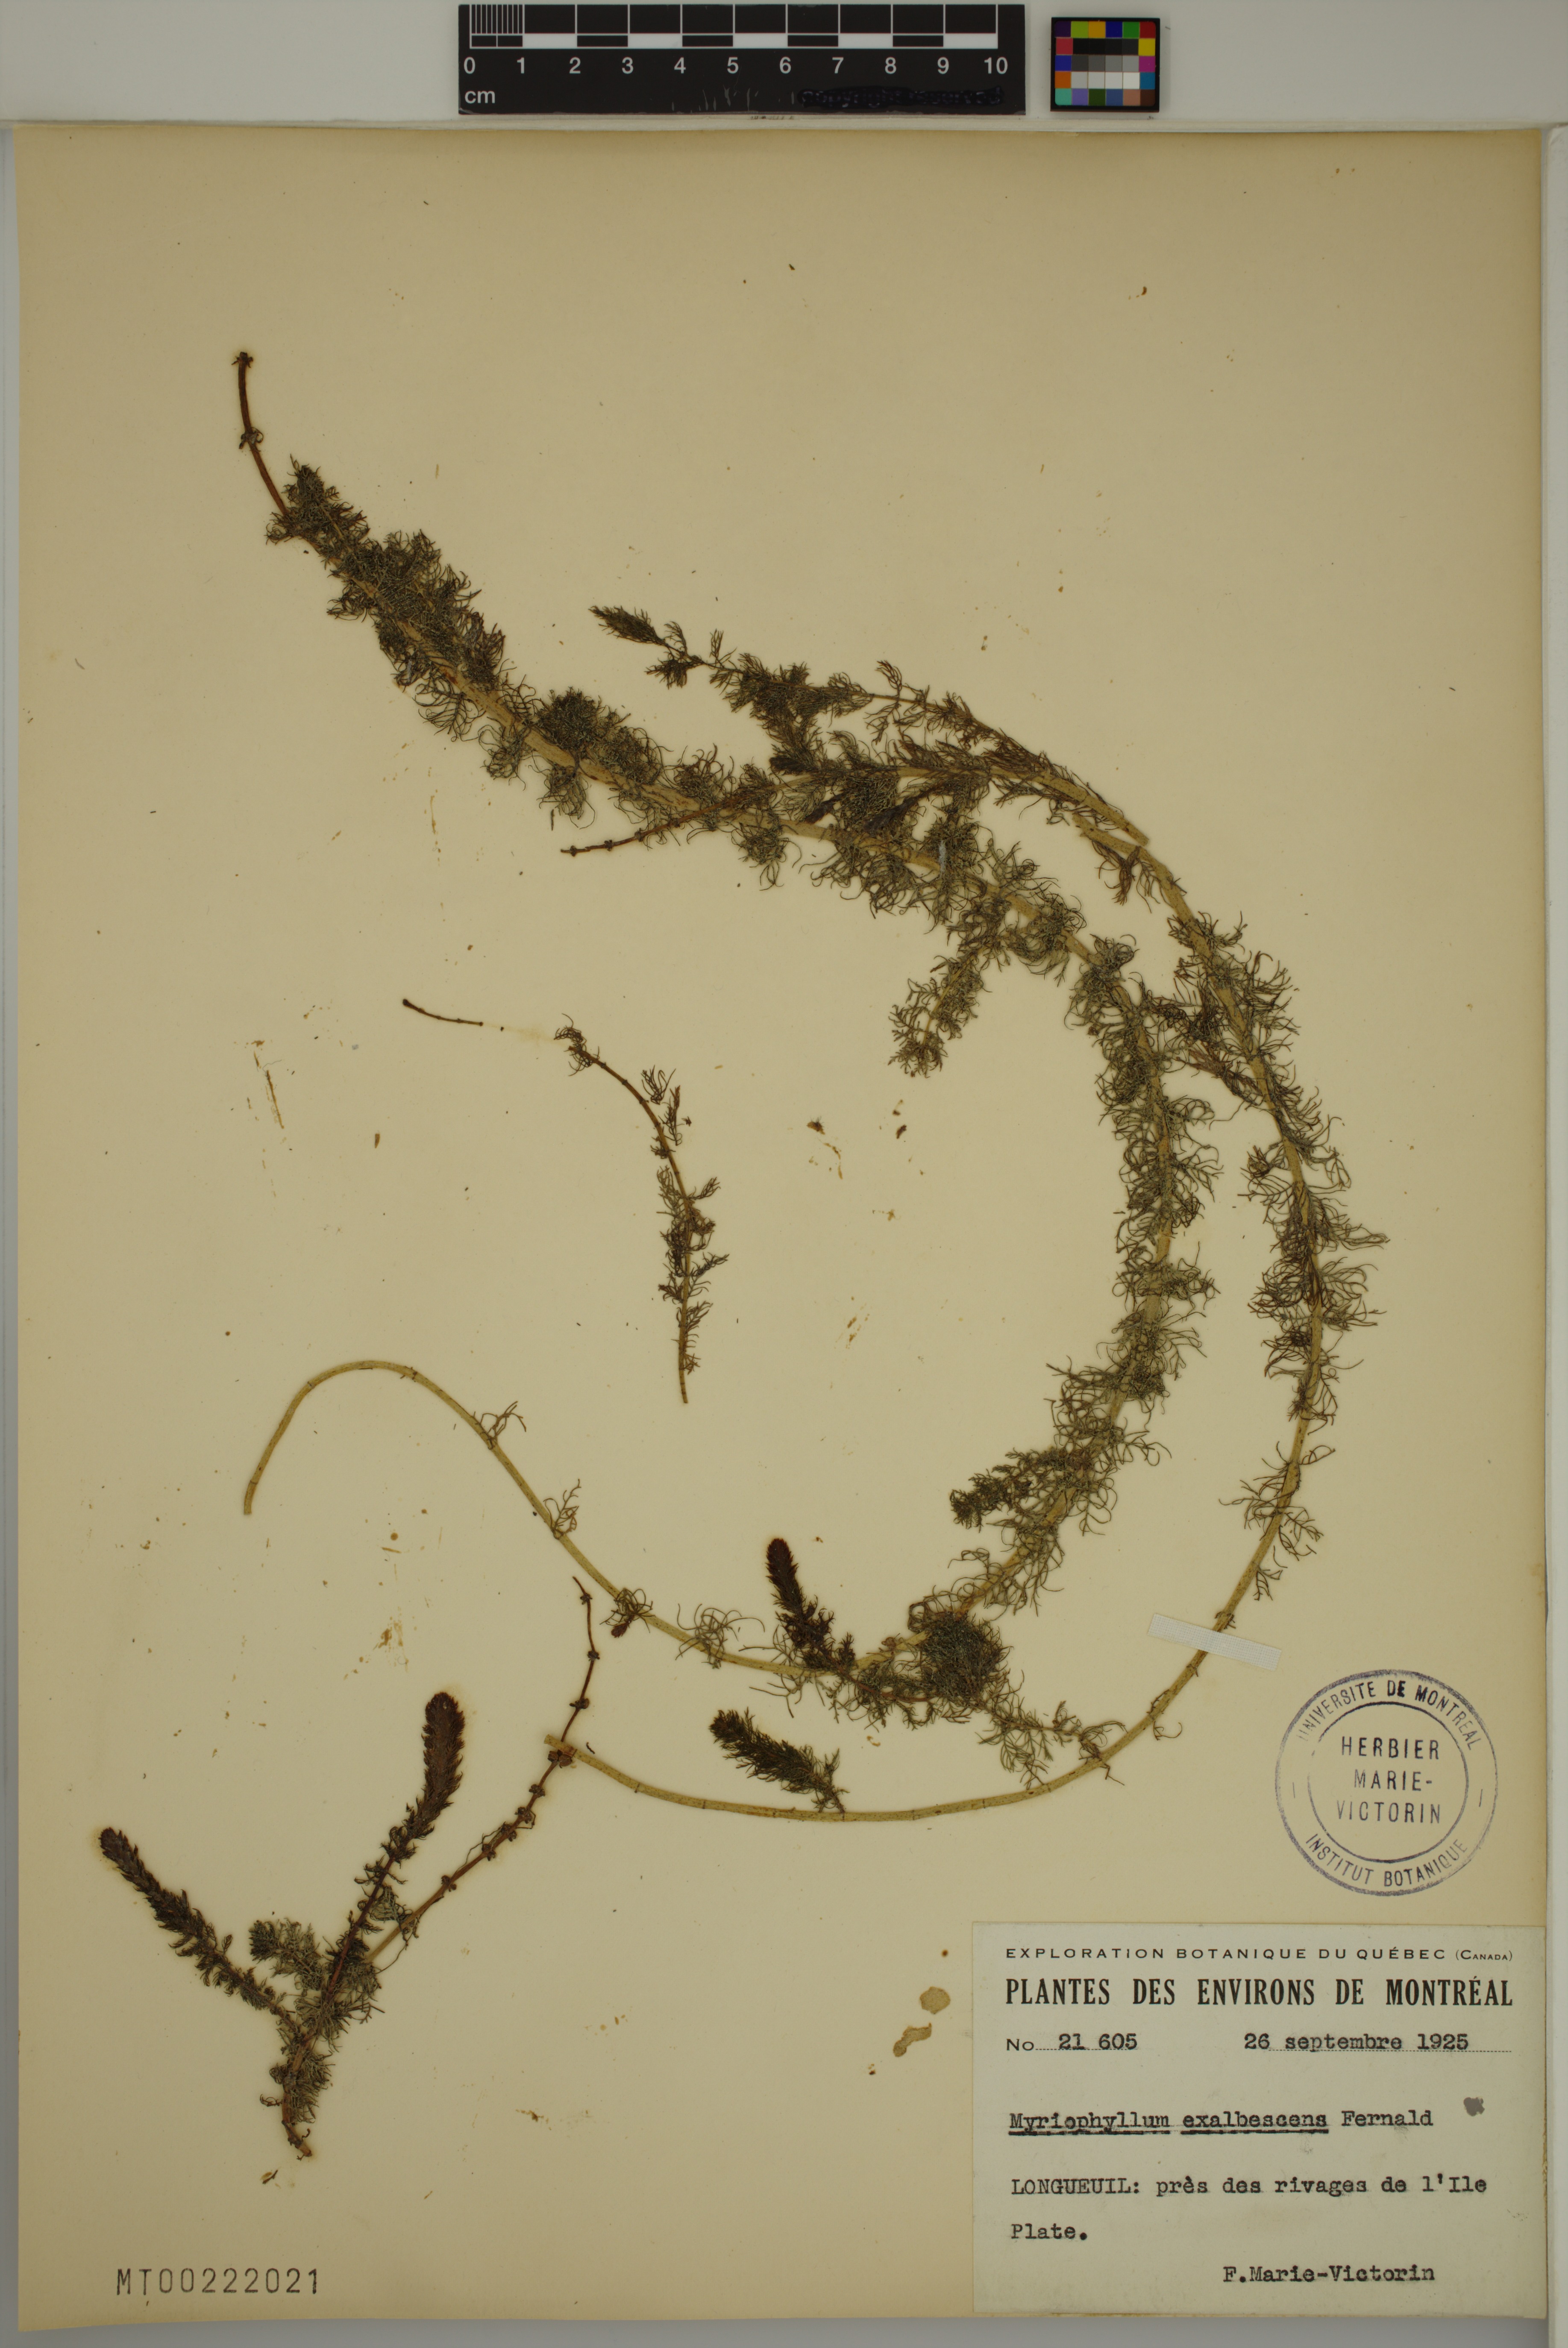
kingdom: Plantae
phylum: Tracheophyta
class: Magnoliopsida
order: Saxifragales
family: Haloragaceae
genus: Myriophyllum
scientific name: Myriophyllum sibiricum
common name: Siberian water-milfoil
